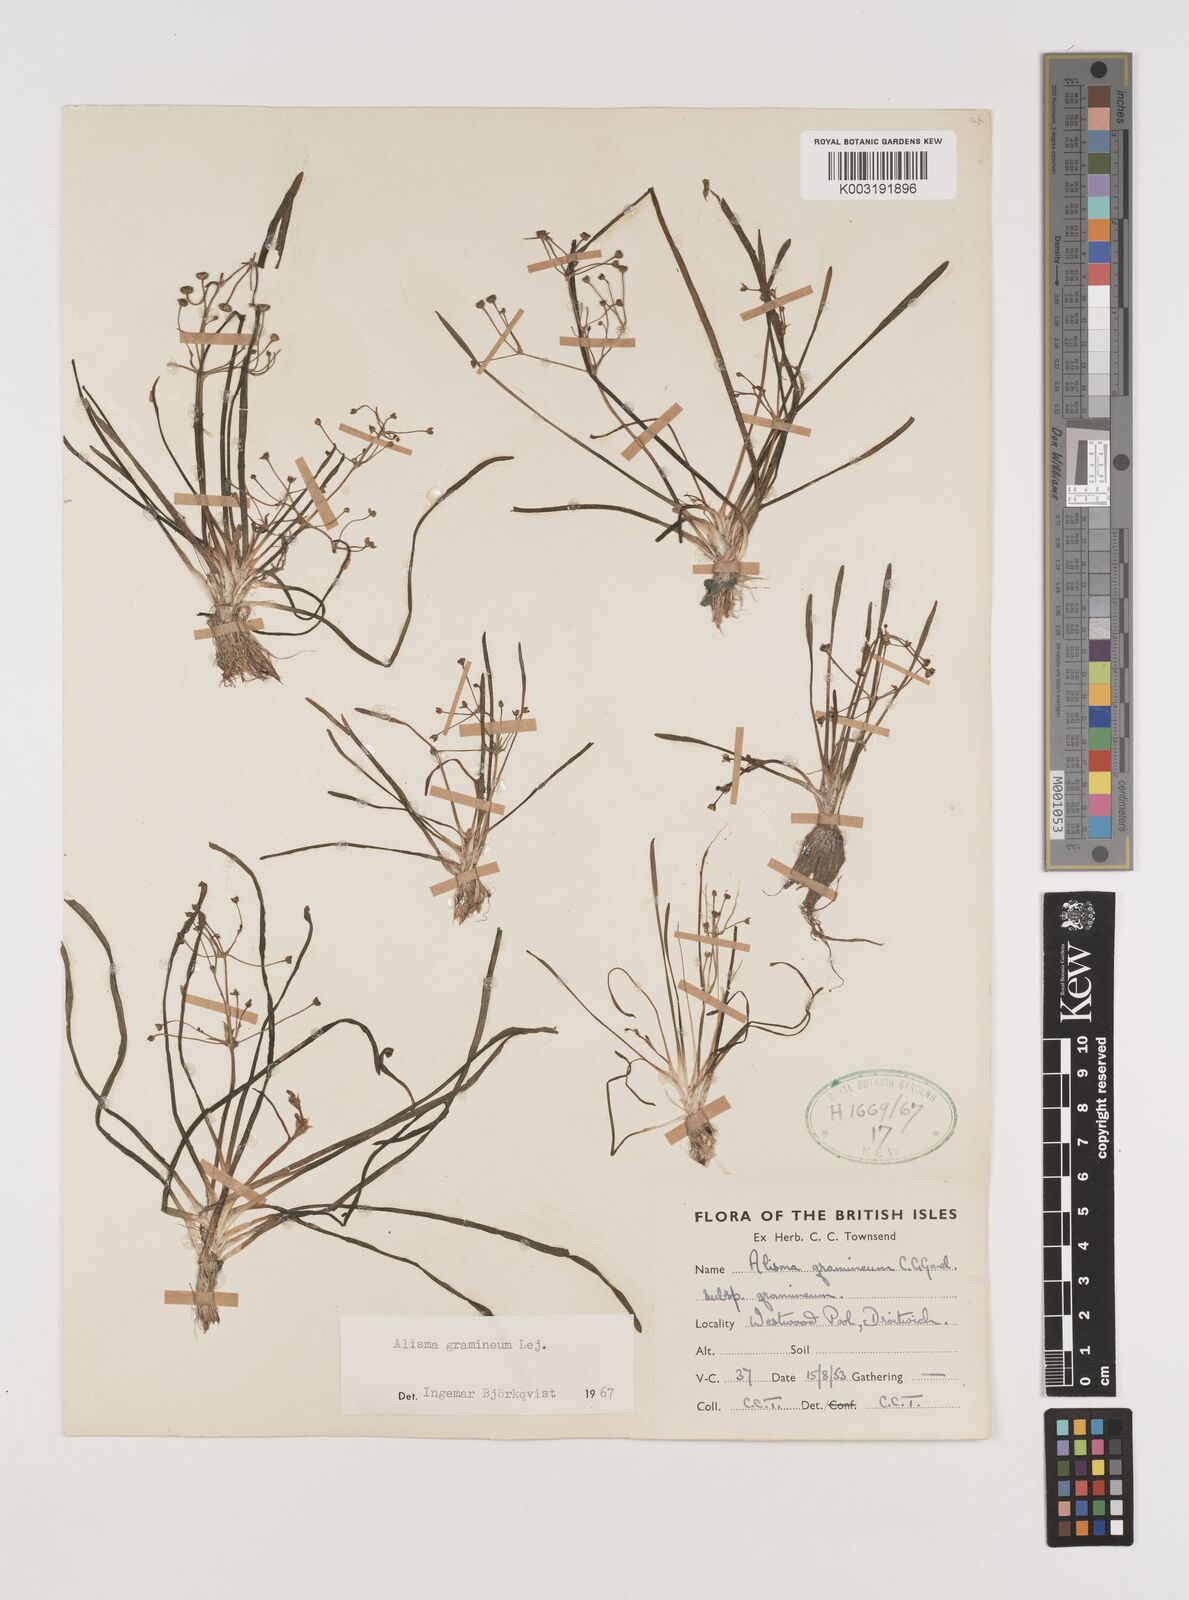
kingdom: Plantae
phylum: Tracheophyta
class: Liliopsida
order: Alismatales
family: Alismataceae
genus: Alisma
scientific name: Alisma gramineum
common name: Ribbon-leaved water-plantain
